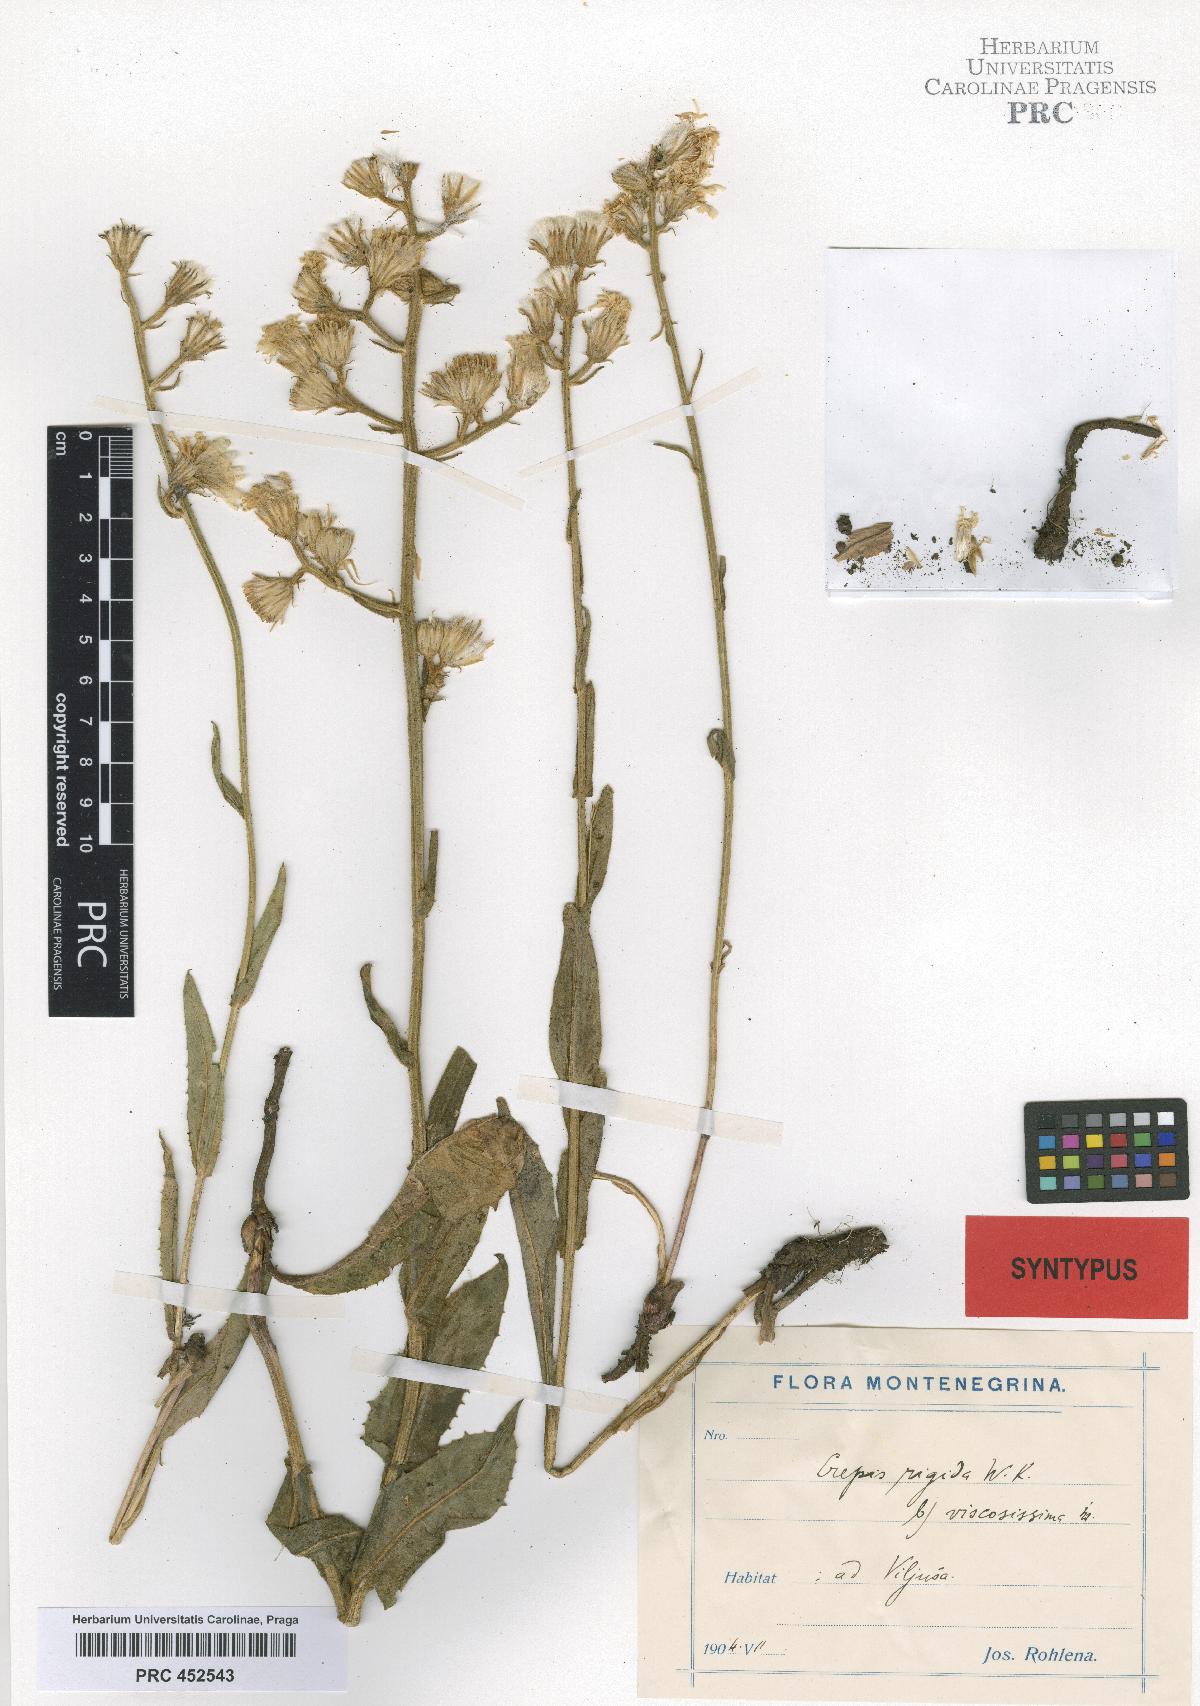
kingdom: Plantae
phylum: Tracheophyta
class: Magnoliopsida
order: Asterales
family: Asteraceae
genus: Crepis
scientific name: Crepis pannonica
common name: Pasture hawksbeard
